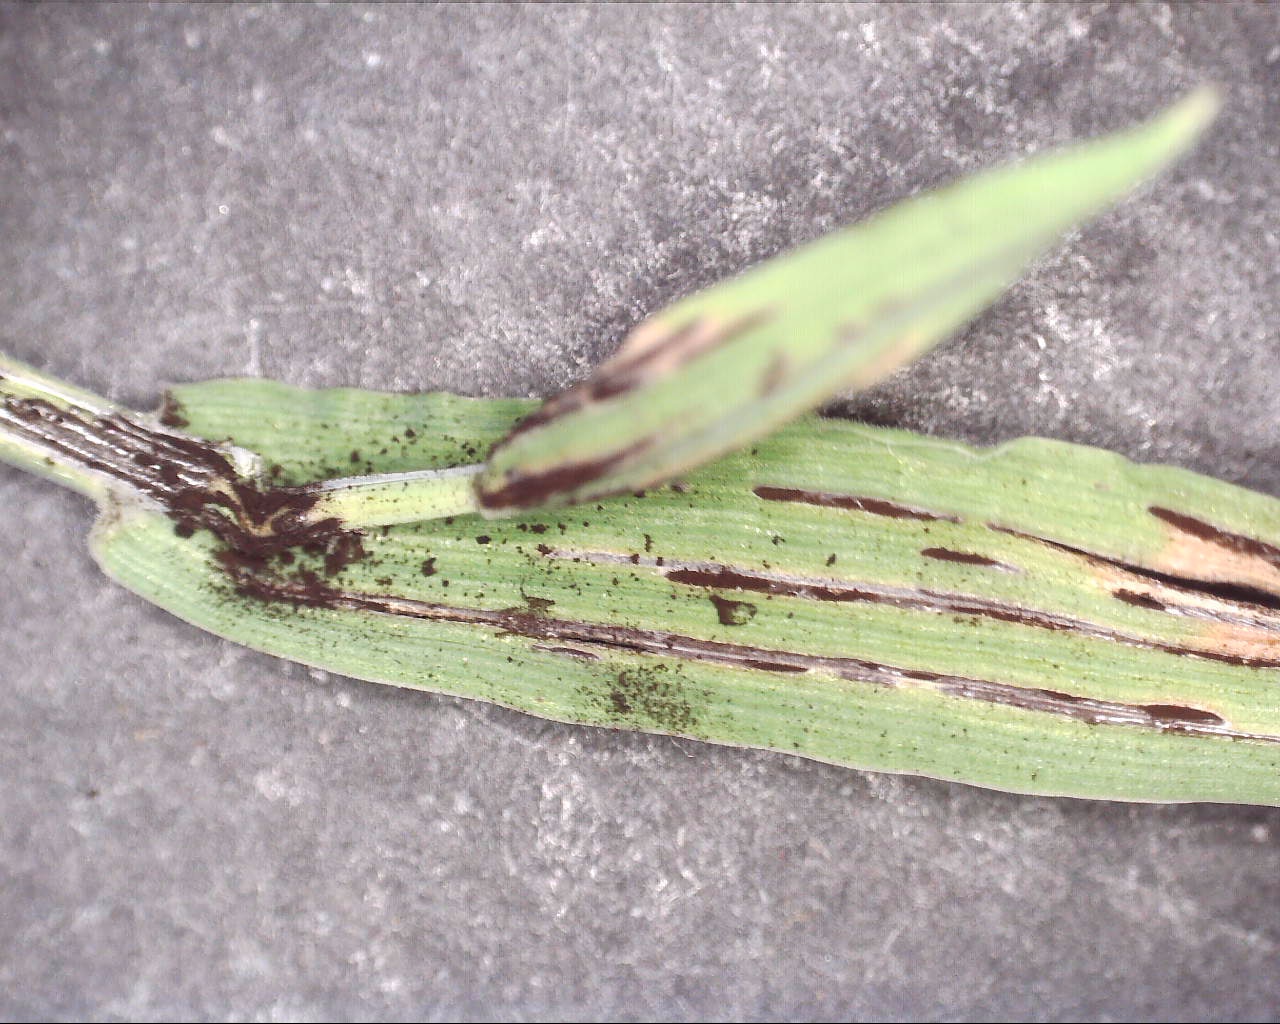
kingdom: Fungi
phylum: Basidiomycota
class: Ustilaginomycetes
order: Ustilaginales
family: Ustilaginaceae
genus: Ustilago
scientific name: Ustilago striiformis
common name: Stripe smut of grasses
